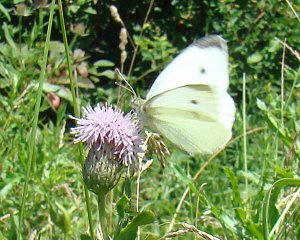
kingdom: Animalia
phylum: Arthropoda
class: Insecta
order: Lepidoptera
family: Pieridae
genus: Pieris
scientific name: Pieris rapae
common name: Cabbage White
